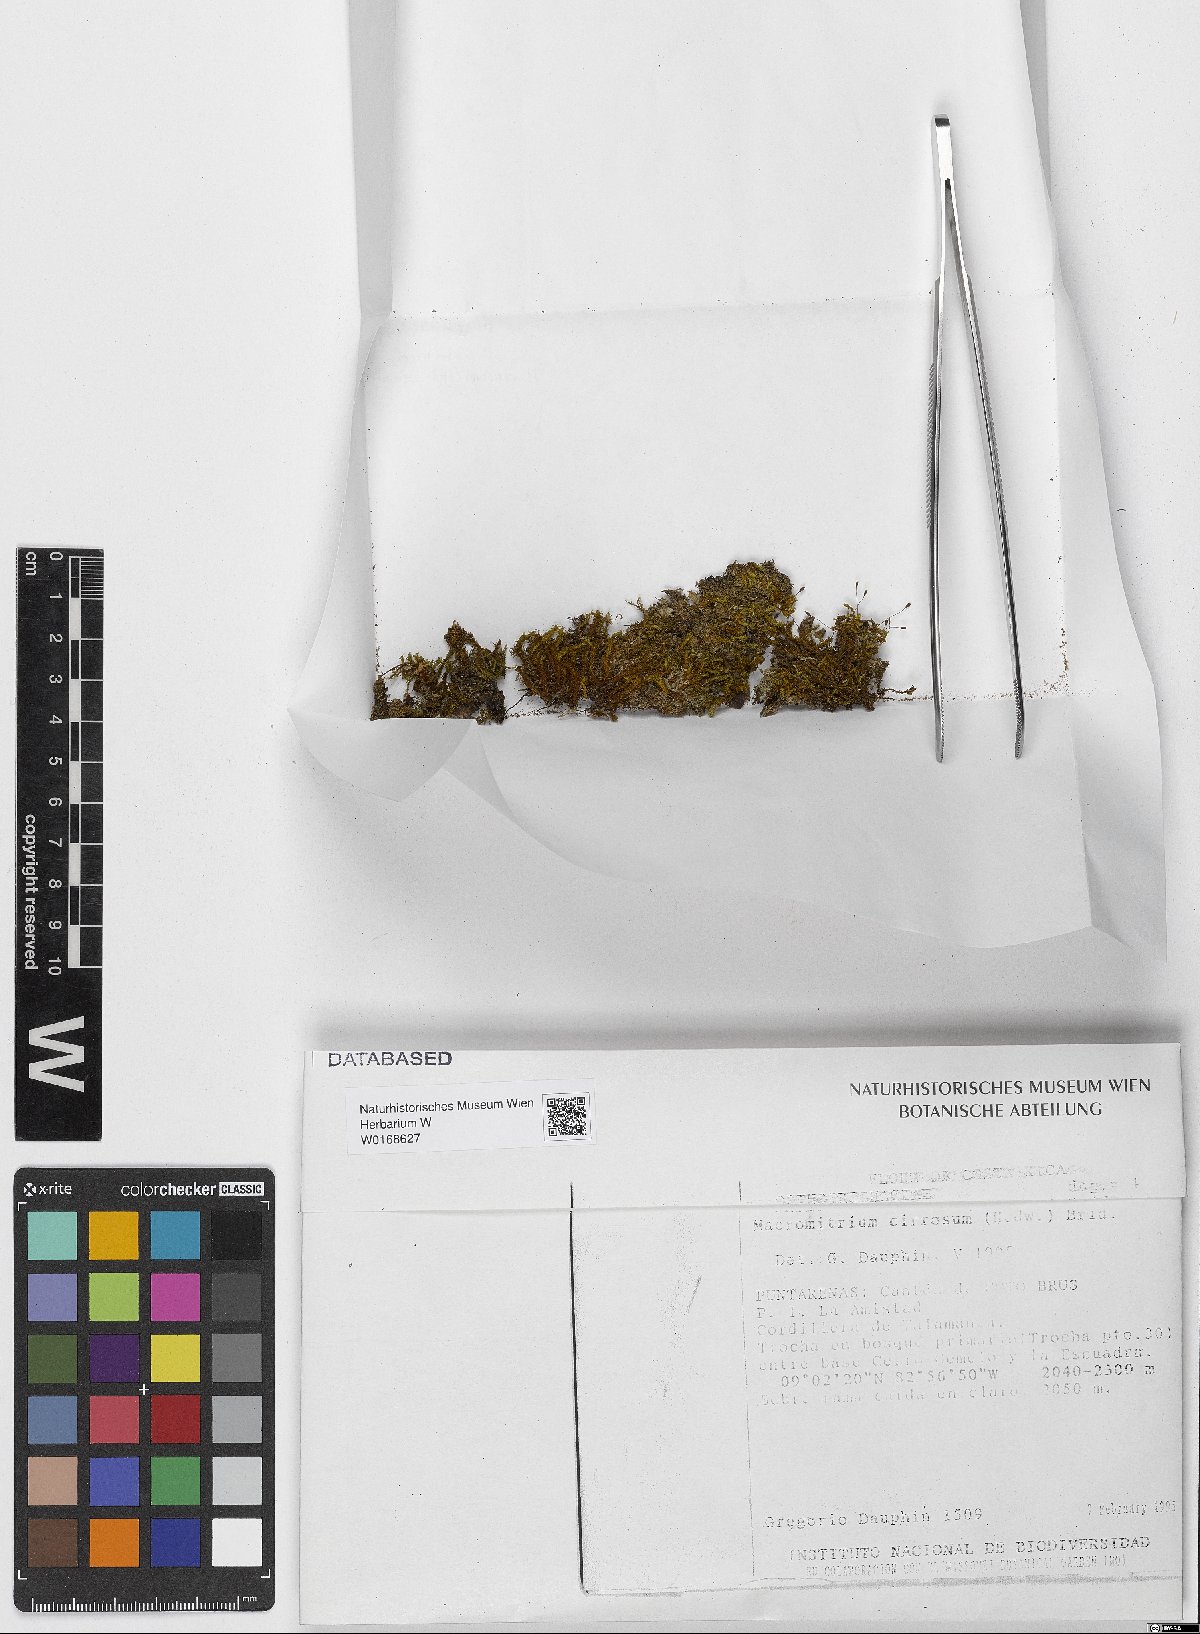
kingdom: Plantae
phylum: Bryophyta
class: Bryopsida
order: Orthotrichales
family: Orthotrichaceae
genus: Macromitrium
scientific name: Macromitrium cirrosum
